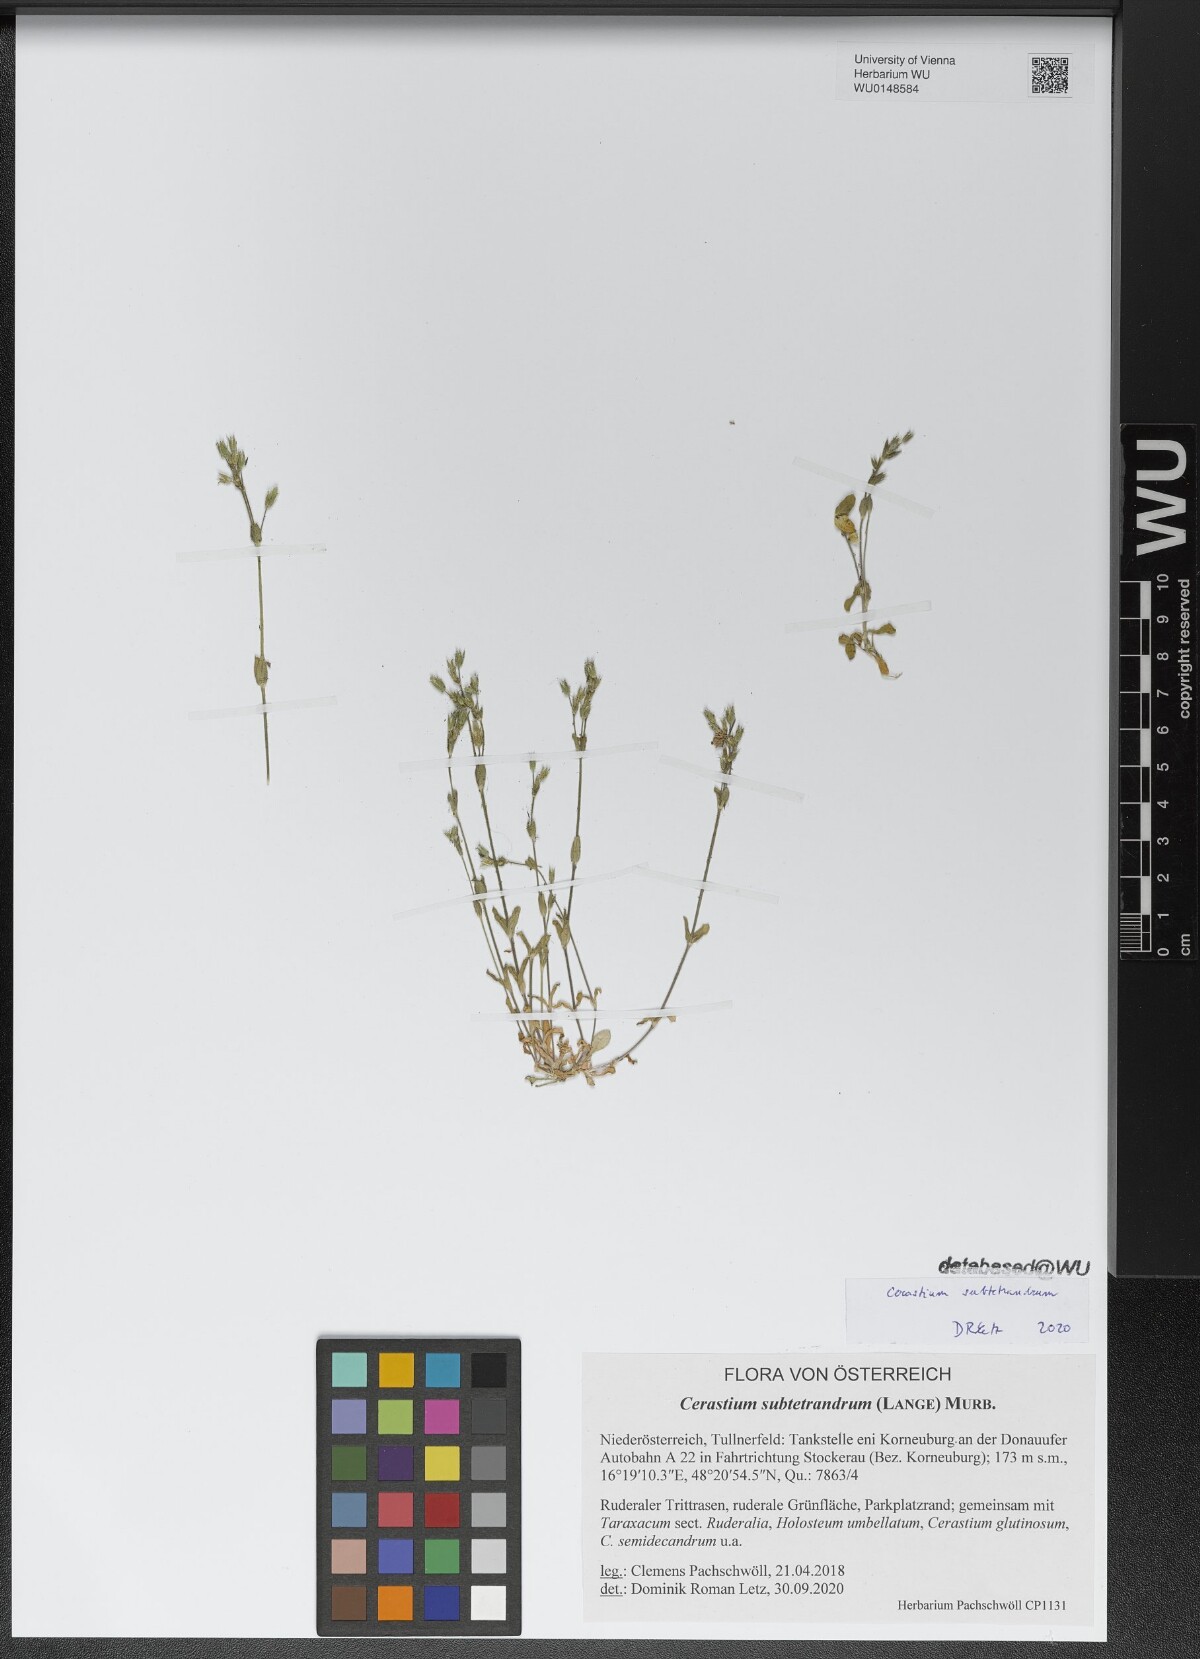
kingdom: Plantae
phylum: Tracheophyta
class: Magnoliopsida
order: Caryophyllales
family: Caryophyllaceae
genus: Cerastium
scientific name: Cerastium subtetrandrum
